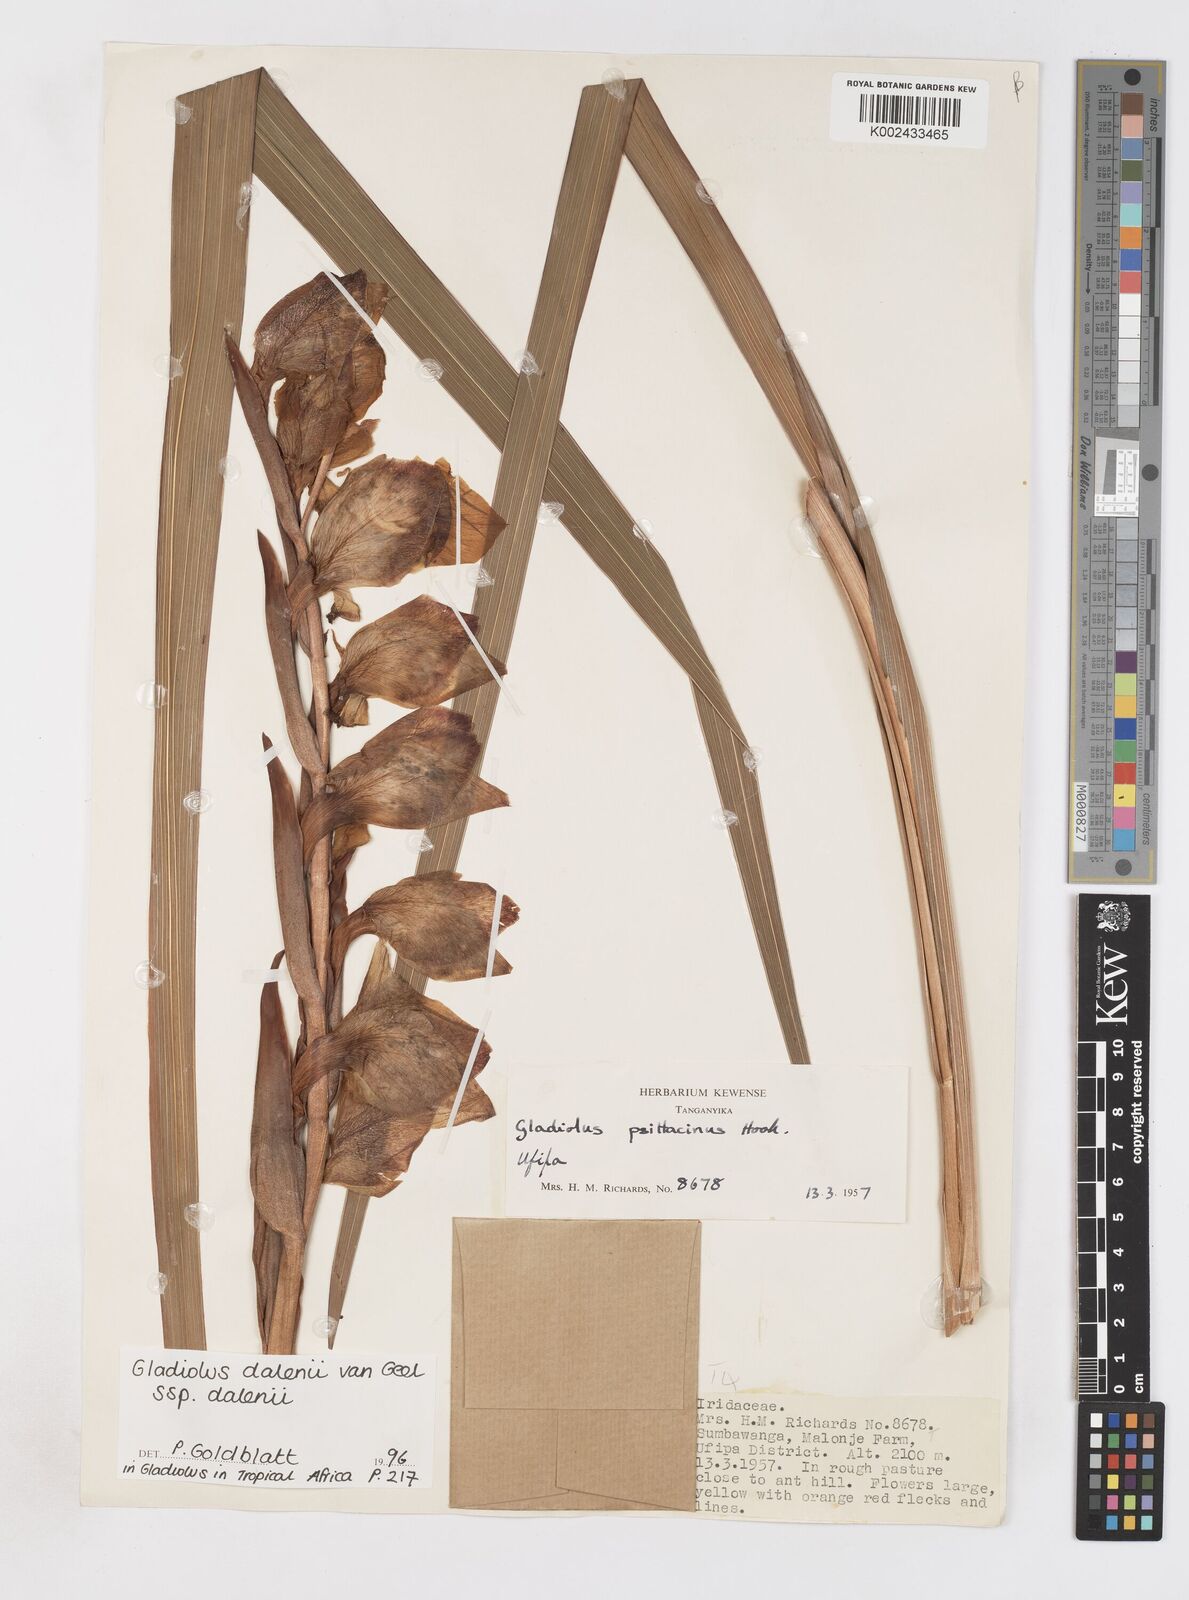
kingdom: Plantae
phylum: Tracheophyta
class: Liliopsida
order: Asparagales
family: Iridaceae
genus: Gladiolus
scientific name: Gladiolus dalenii
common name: Cornflag
